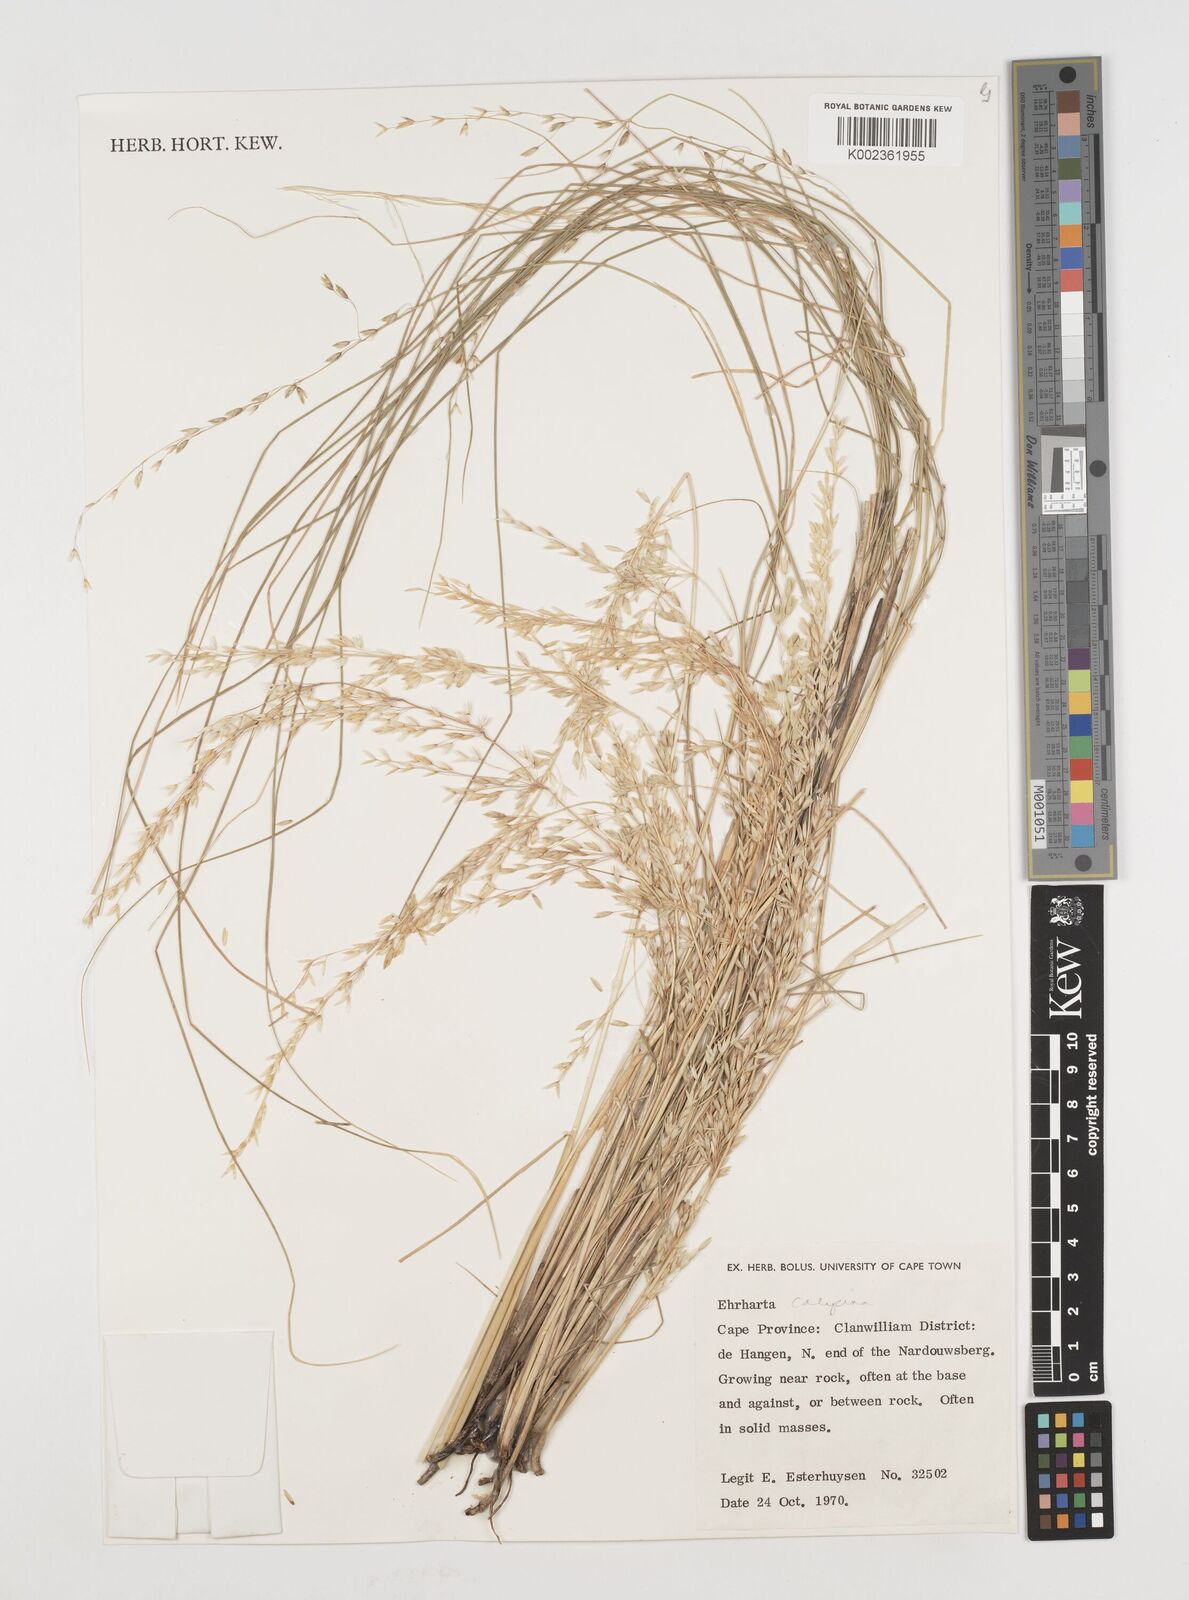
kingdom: Plantae
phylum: Tracheophyta
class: Liliopsida
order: Poales
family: Poaceae
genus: Ehrharta
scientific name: Ehrharta calycina
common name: Perennial veldtgrass
